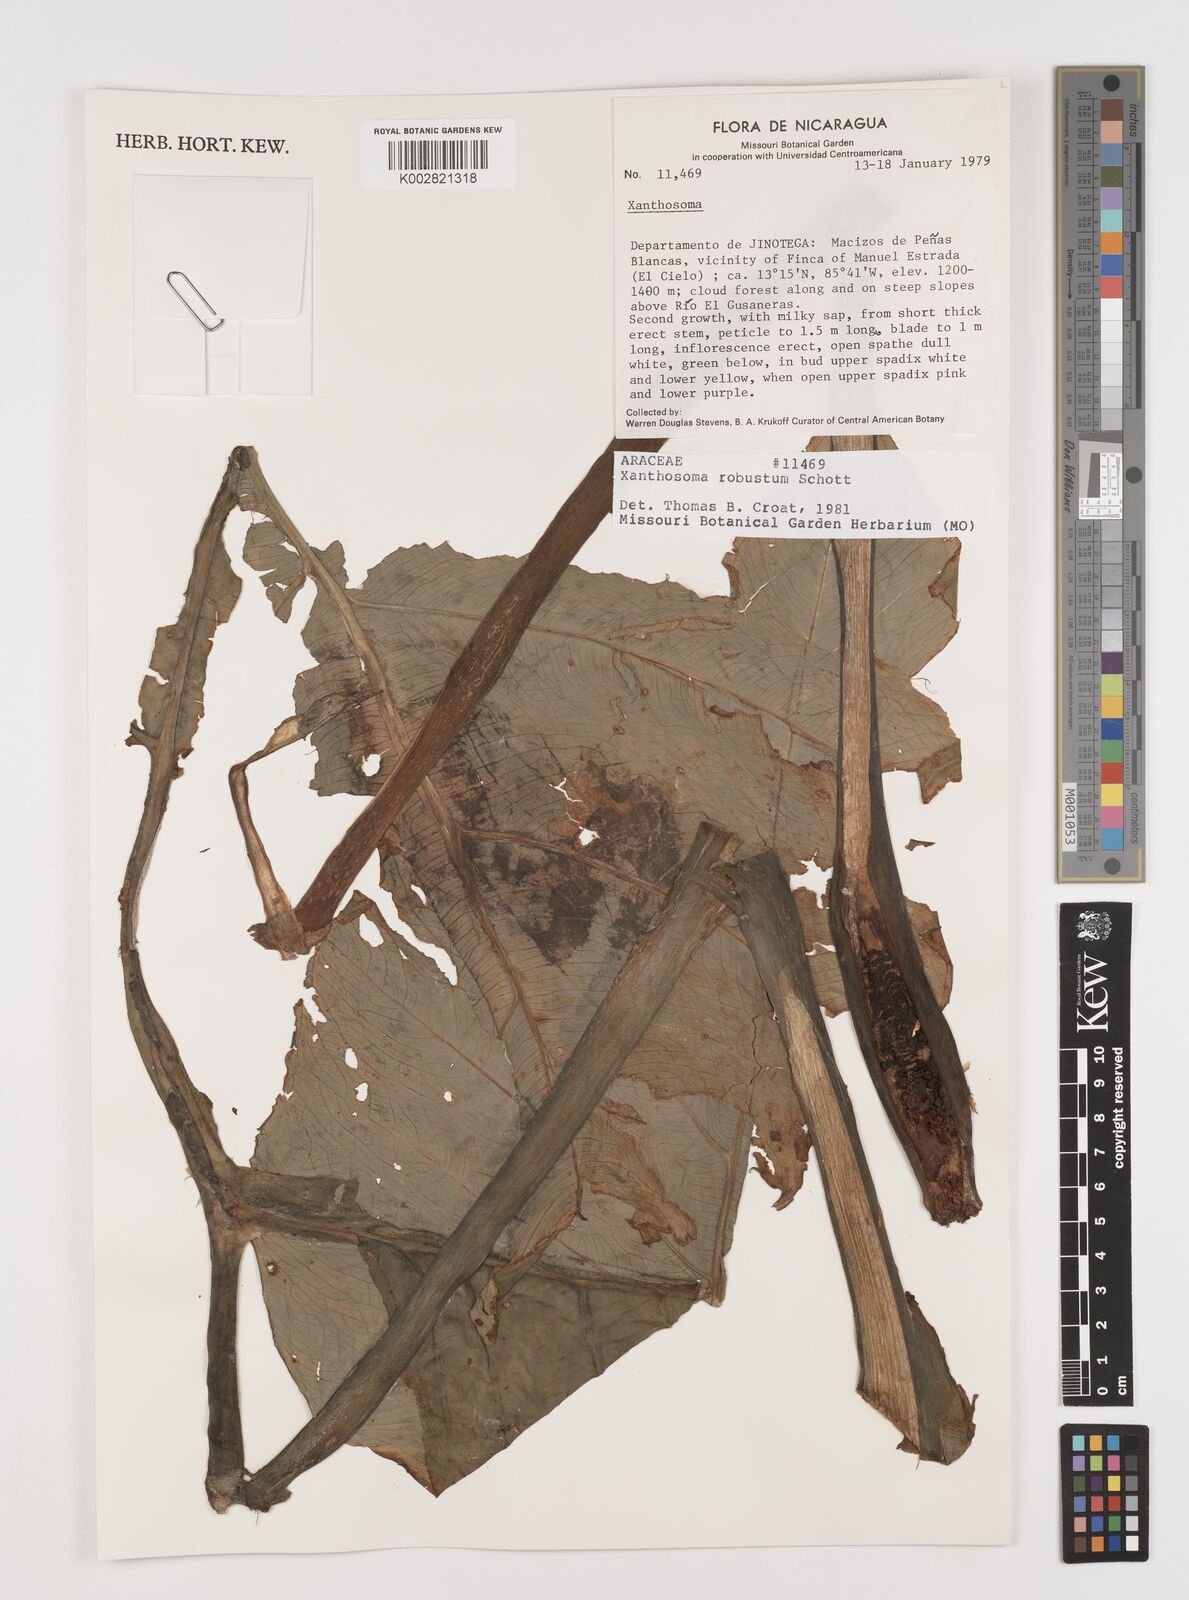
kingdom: Plantae
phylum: Tracheophyta
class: Liliopsida
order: Alismatales
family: Araceae
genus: Xanthosoma
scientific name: Xanthosoma robustum
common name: Capote
